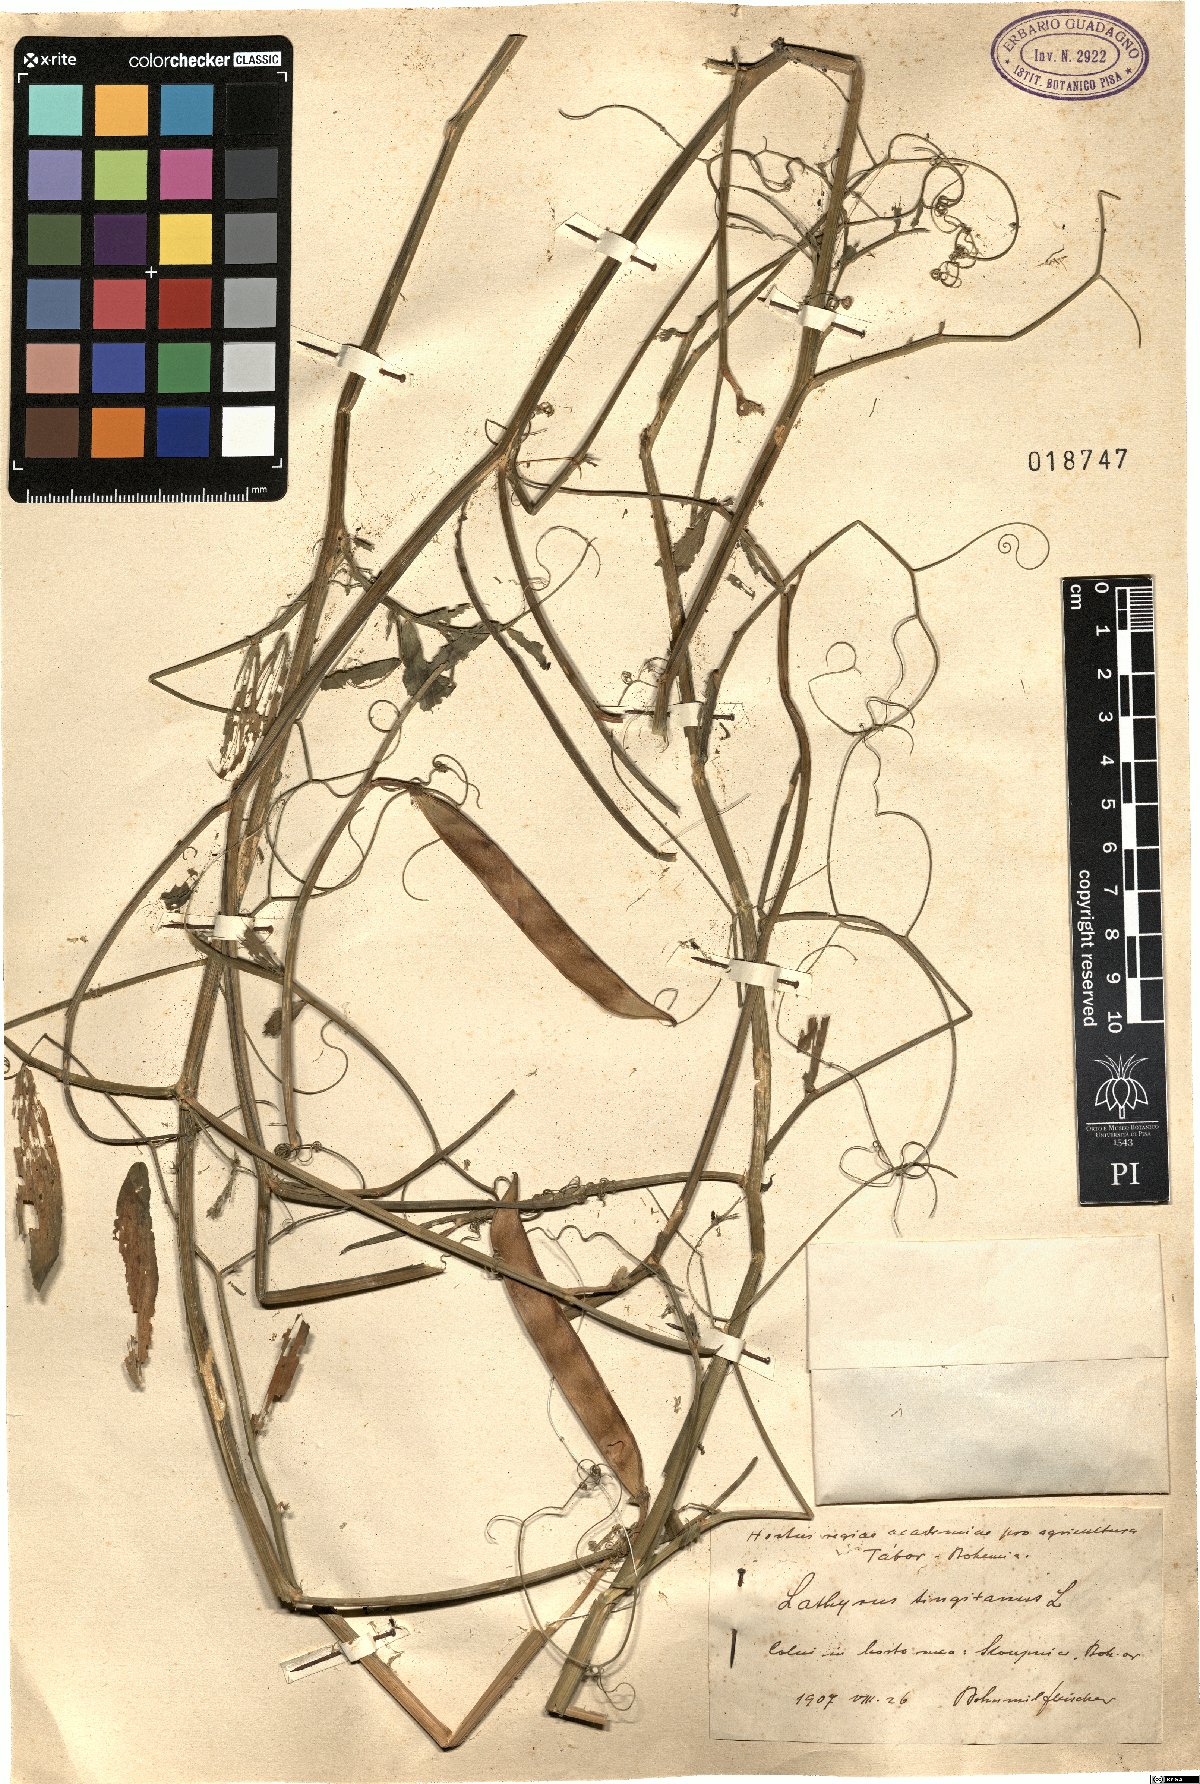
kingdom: Plantae
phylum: Tracheophyta
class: Magnoliopsida
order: Fabales
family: Fabaceae
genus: Lathyrus
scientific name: Lathyrus tingitanus
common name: Tangier pea
